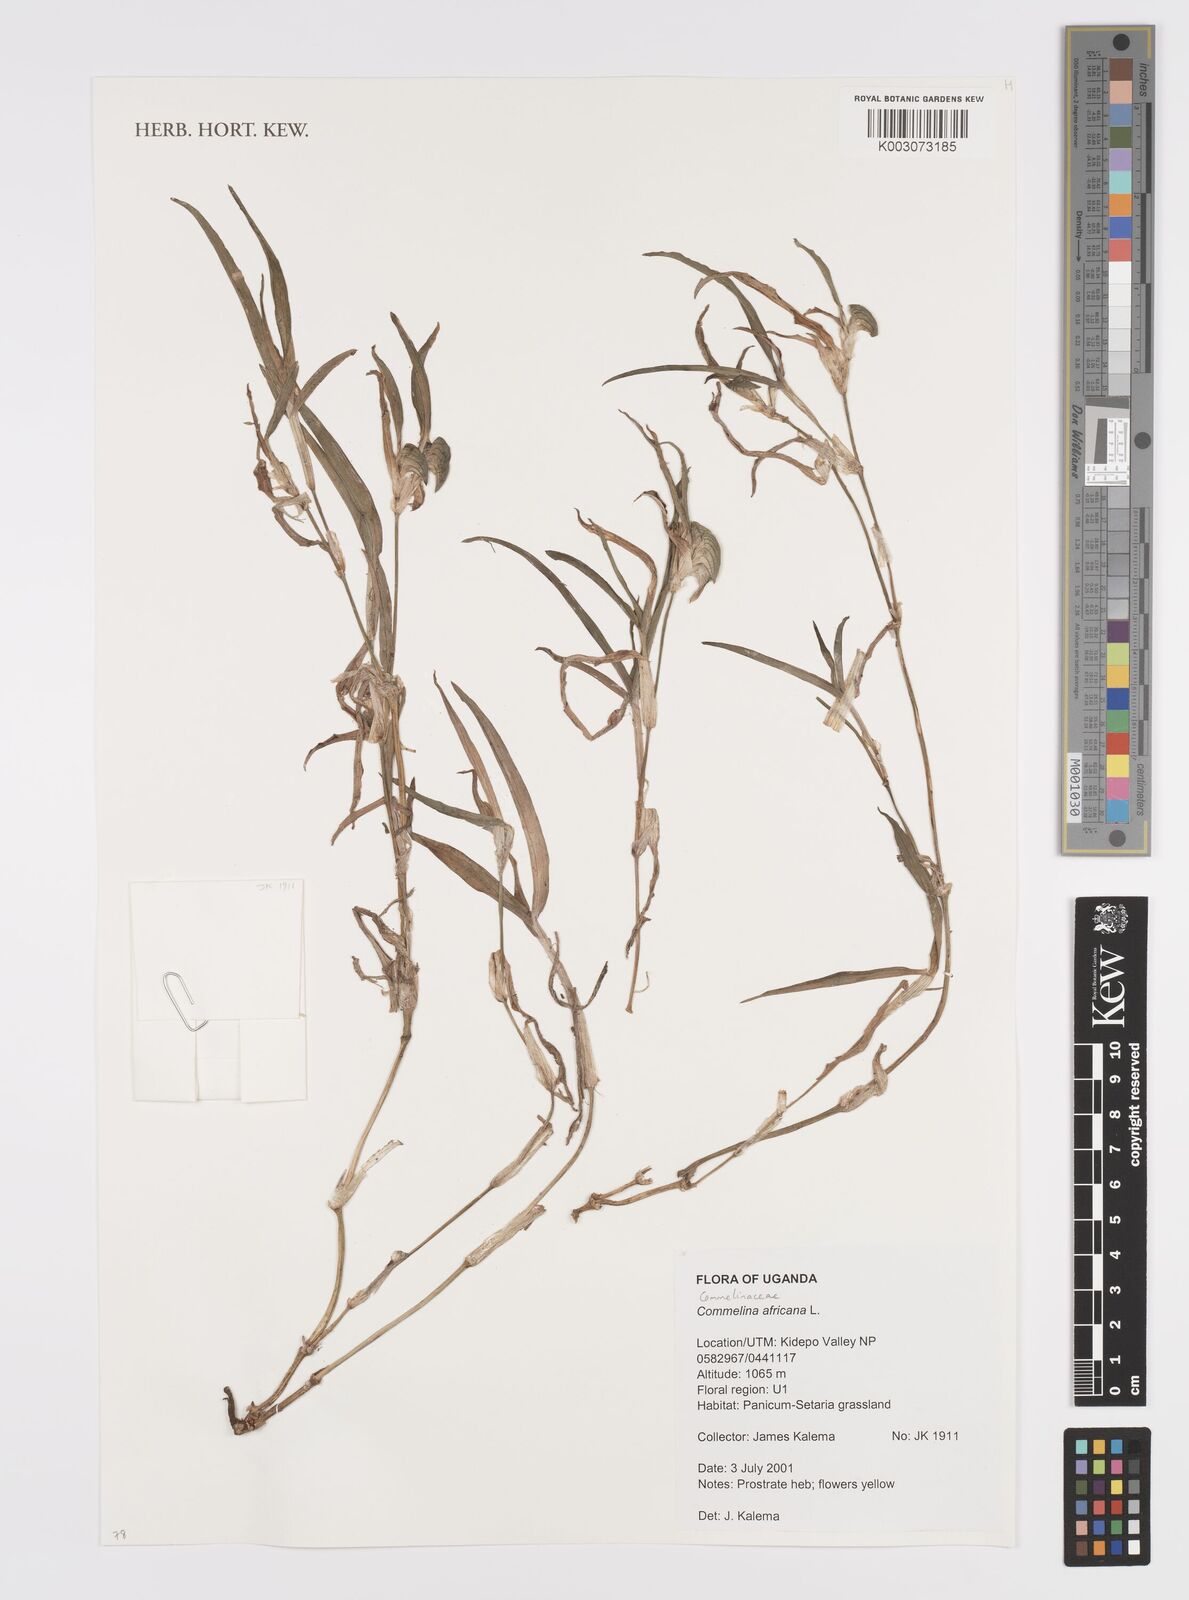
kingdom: Plantae
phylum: Tracheophyta
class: Liliopsida
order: Commelinales
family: Commelinaceae
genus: Commelina
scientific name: Commelina africana
